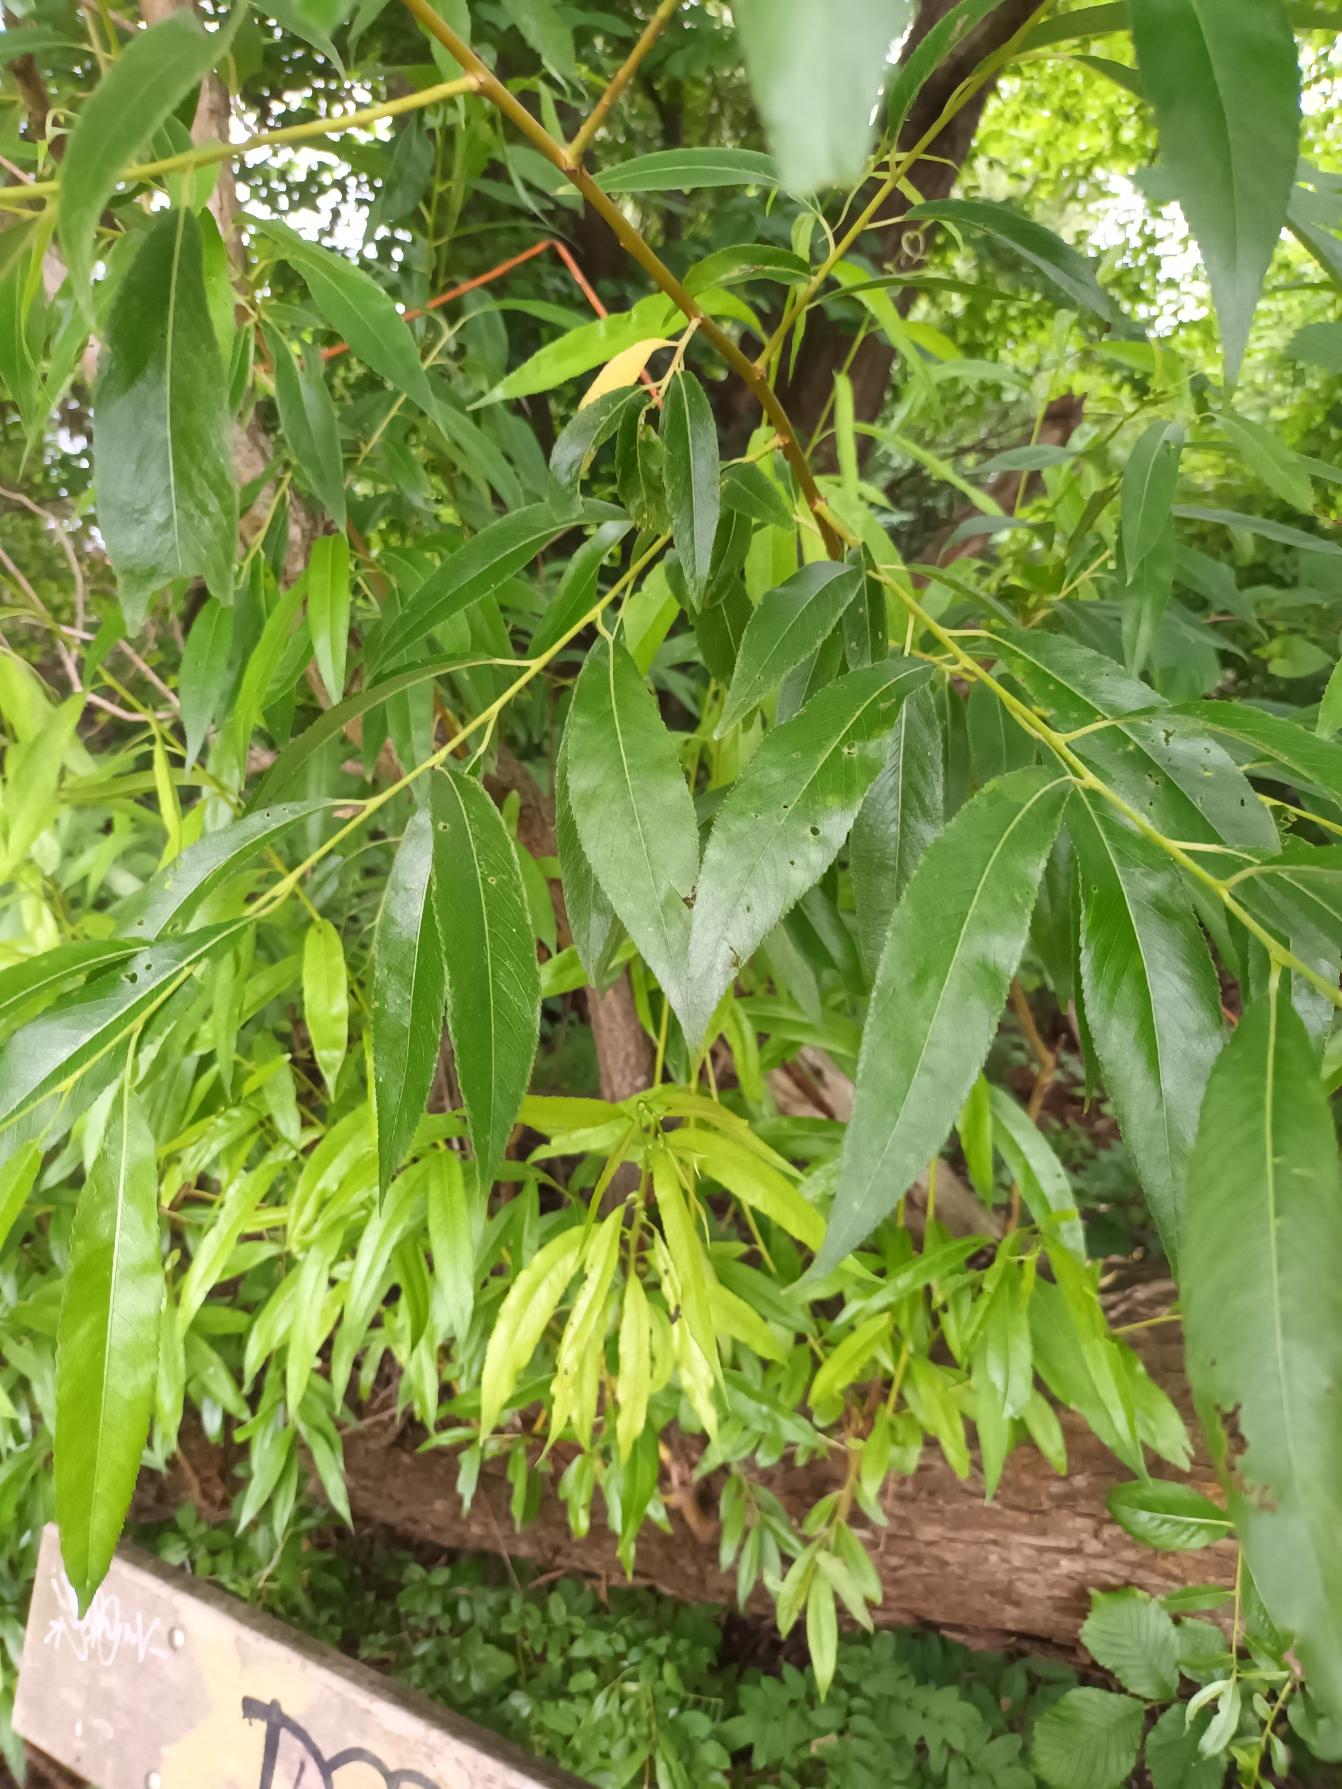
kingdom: Plantae
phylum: Tracheophyta
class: Magnoliopsida
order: Malpighiales
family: Salicaceae
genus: Salix
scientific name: Salix hexandra
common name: Balsam-pil
